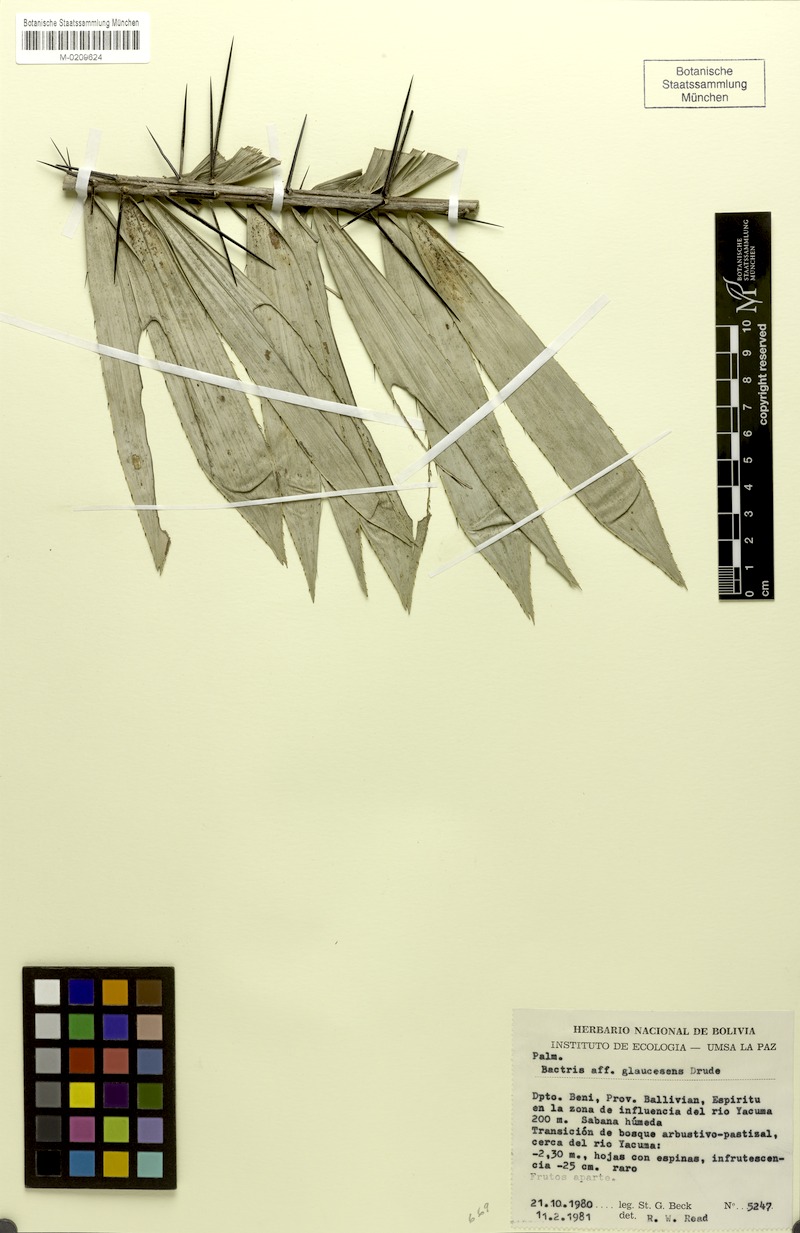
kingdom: Plantae
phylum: Tracheophyta
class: Liliopsida
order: Arecales
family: Arecaceae
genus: Bactris
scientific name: Bactris glaucescens
